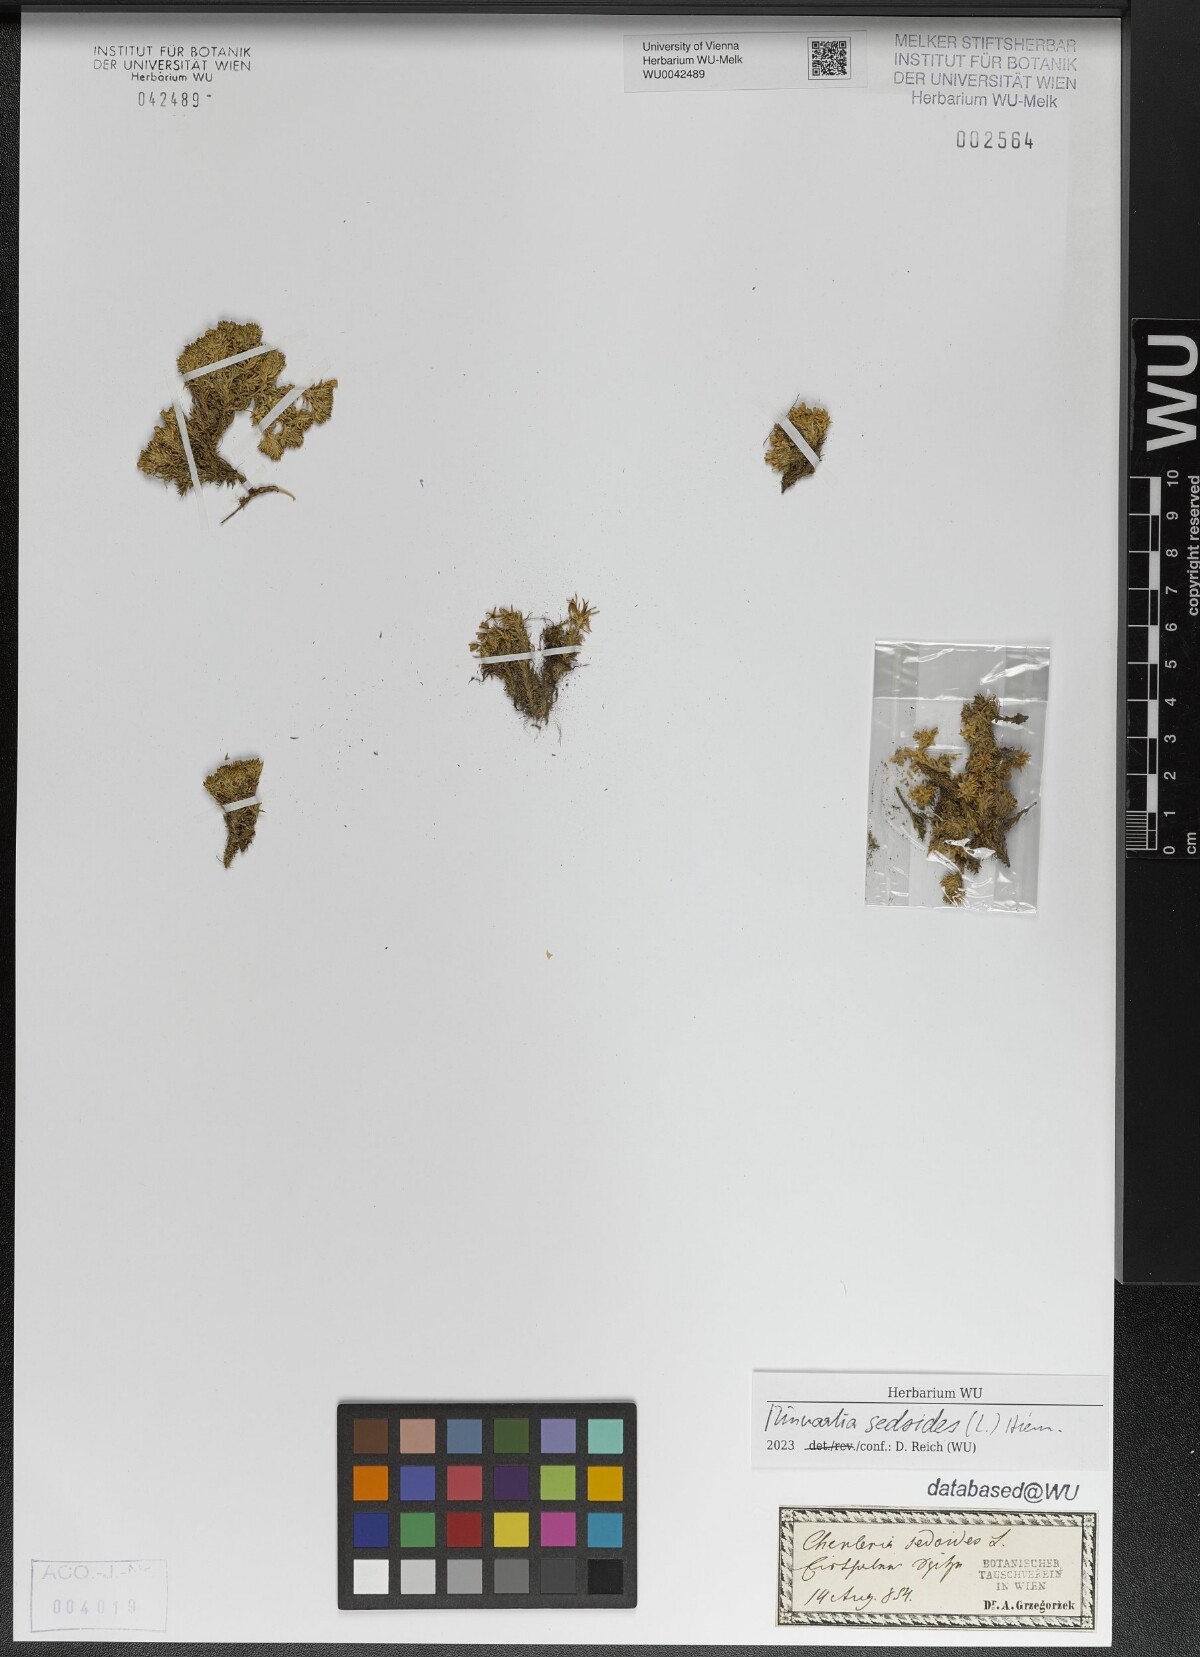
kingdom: Plantae
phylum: Tracheophyta
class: Magnoliopsida
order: Caryophyllales
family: Caryophyllaceae
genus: Cherleria
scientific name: Cherleria sedoides
